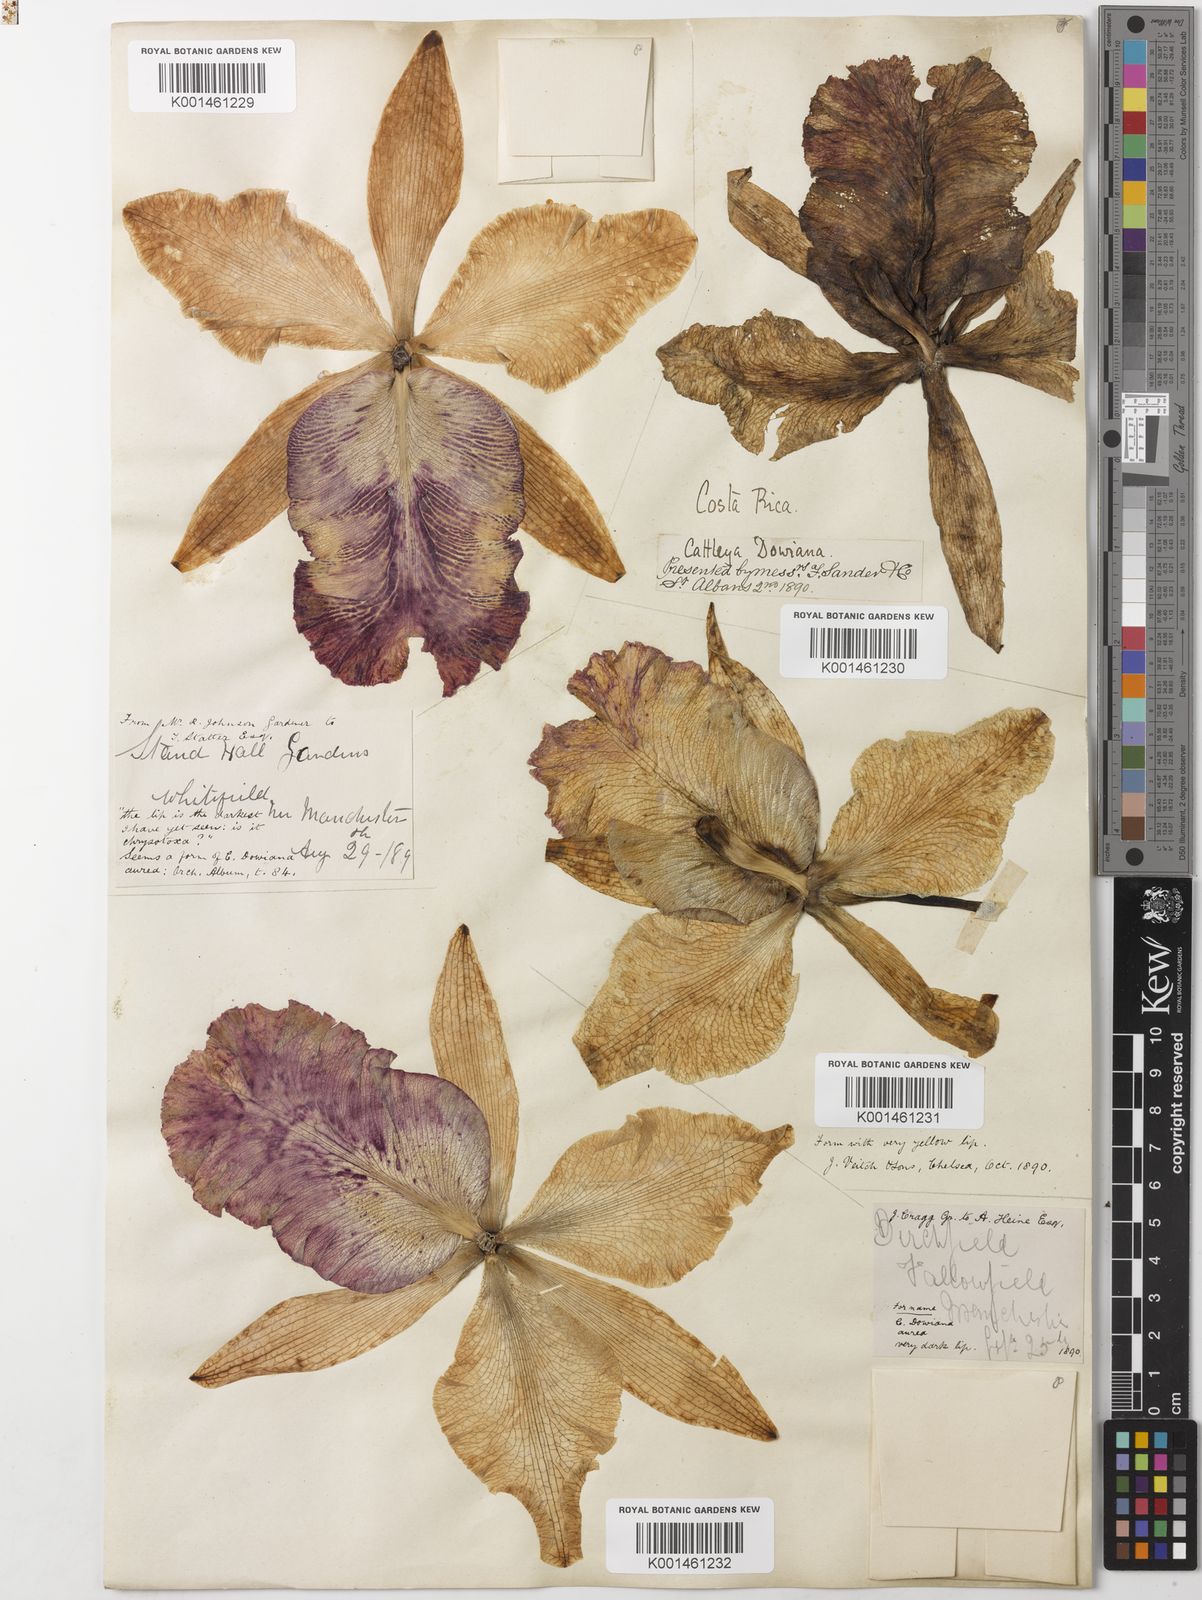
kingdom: Plantae
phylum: Tracheophyta
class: Liliopsida
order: Asparagales
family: Orchidaceae
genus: Cattleya
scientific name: Cattleya dowiana
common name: Queen cattleya
